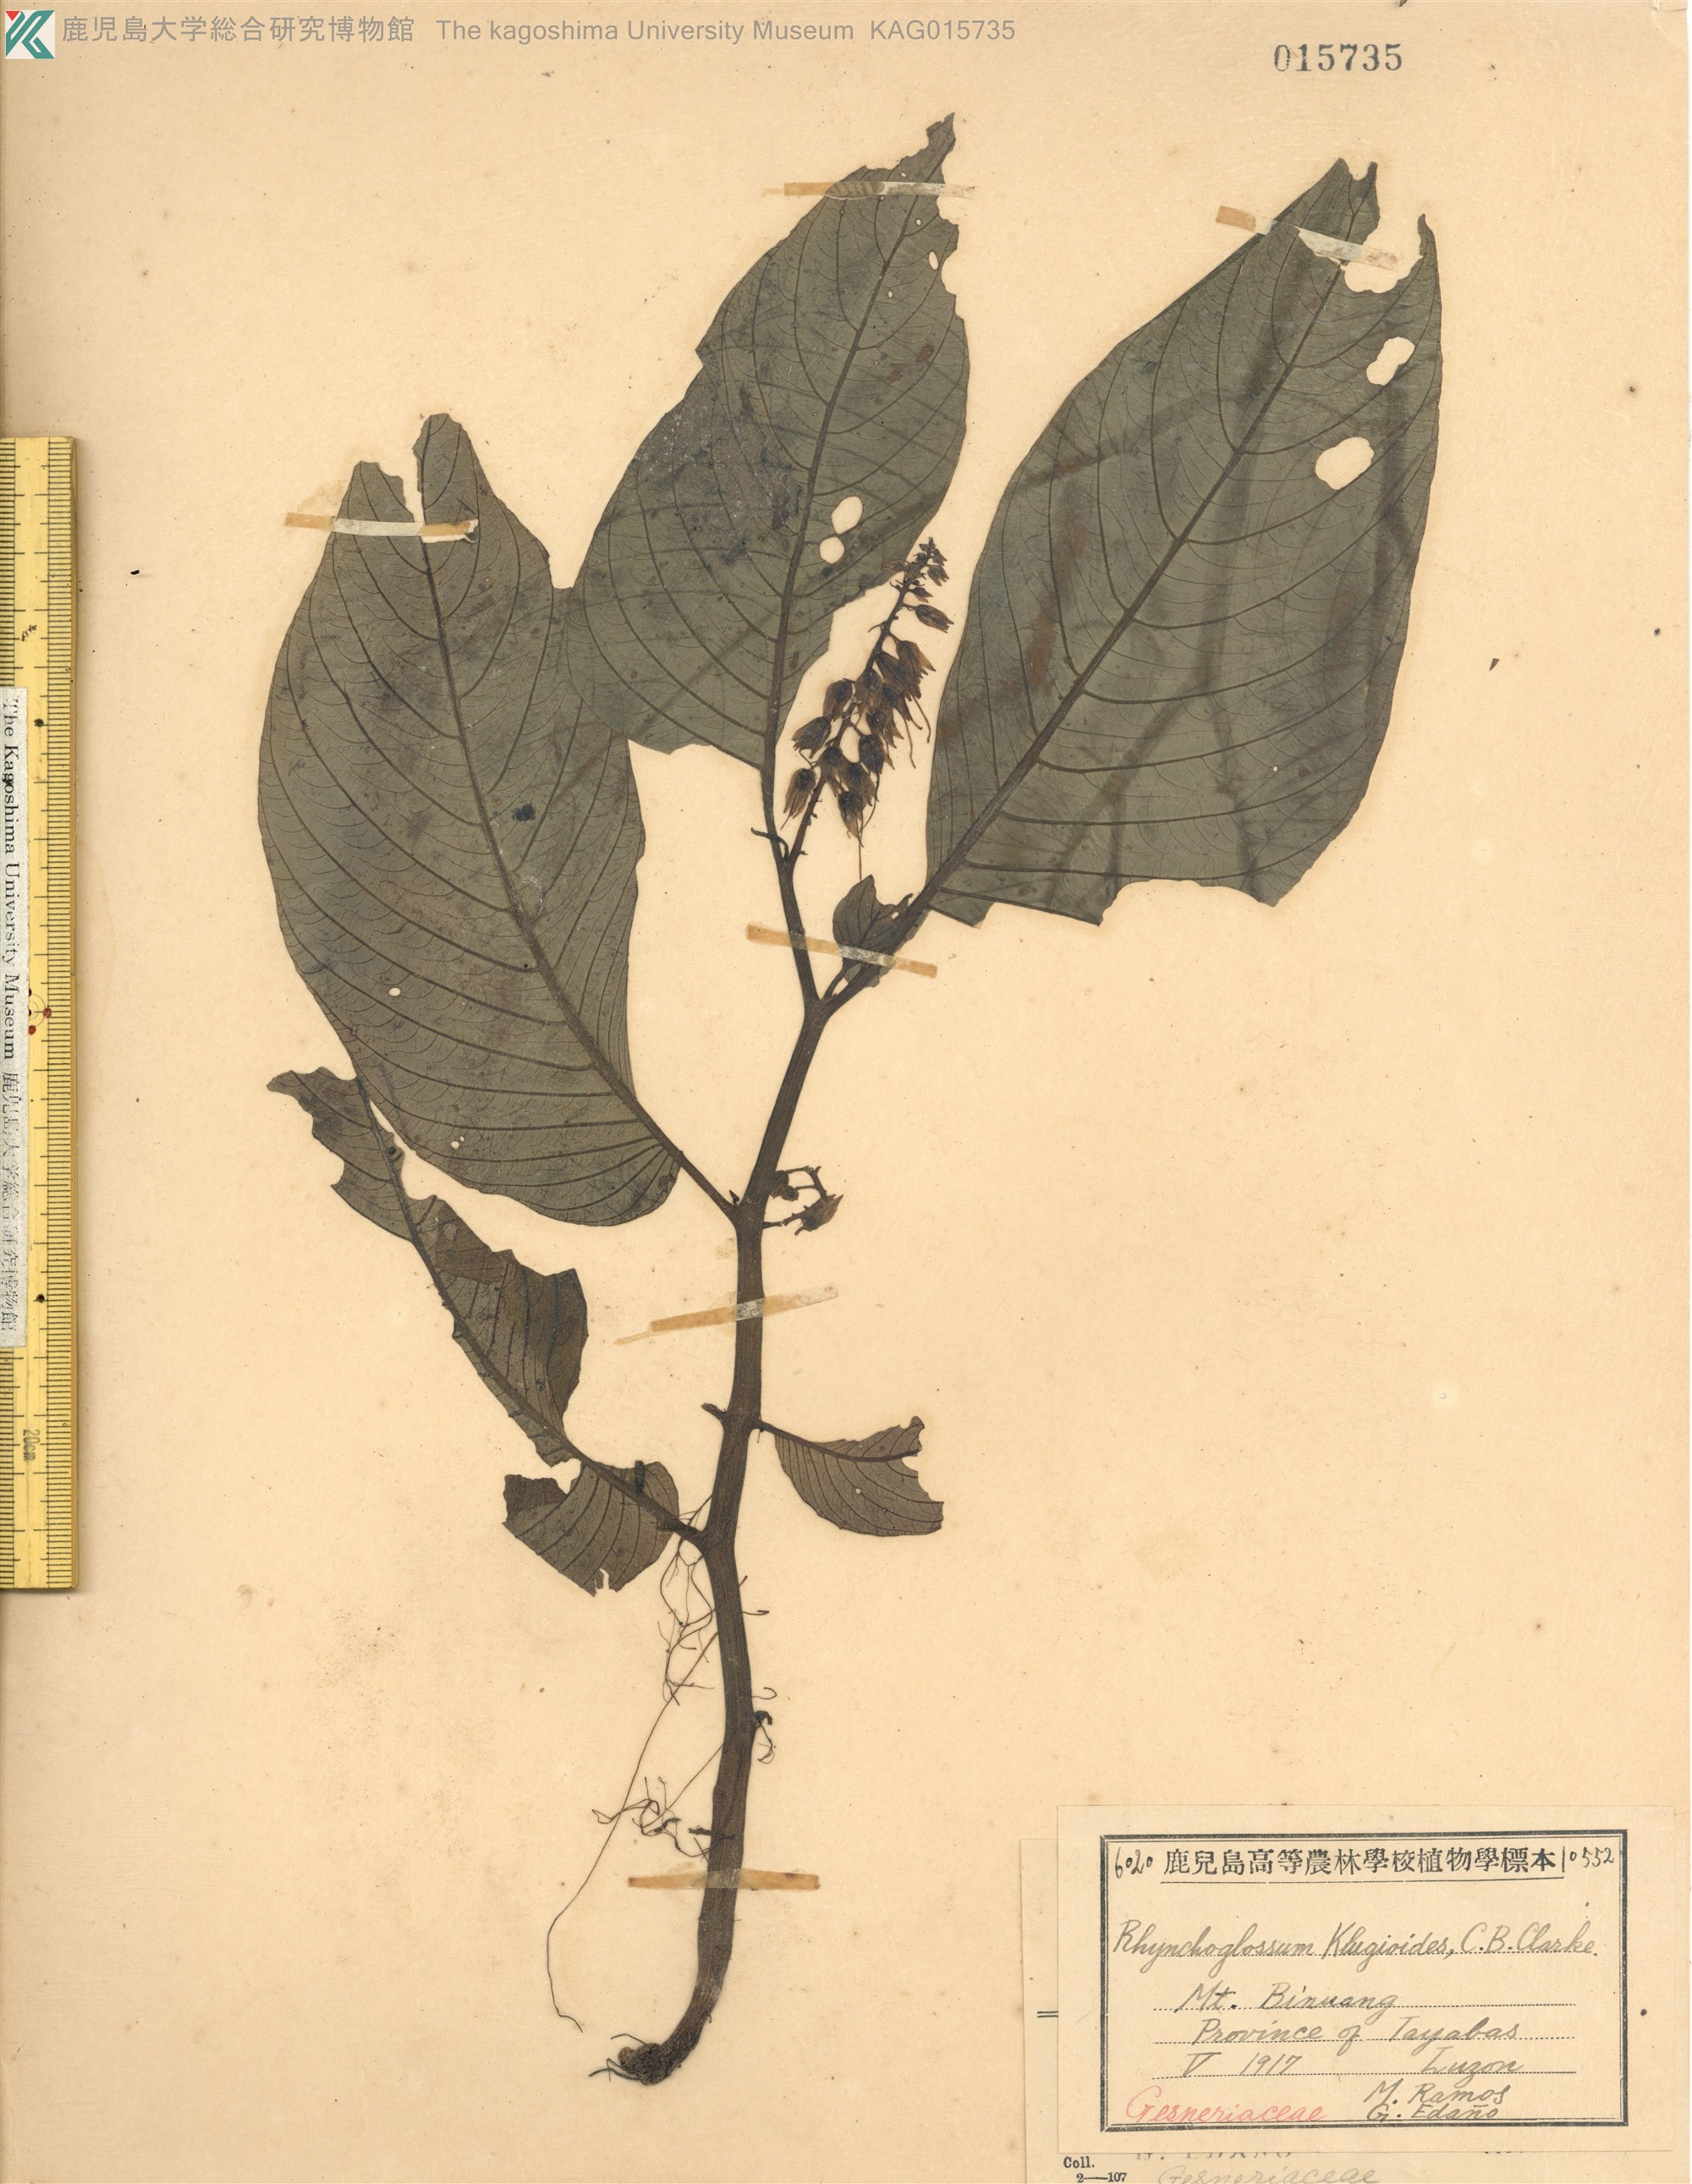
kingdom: Plantae
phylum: Tracheophyta
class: Magnoliopsida
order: Lamiales
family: Gesneriaceae
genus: Rhynchotechum
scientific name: Rhynchotechum
